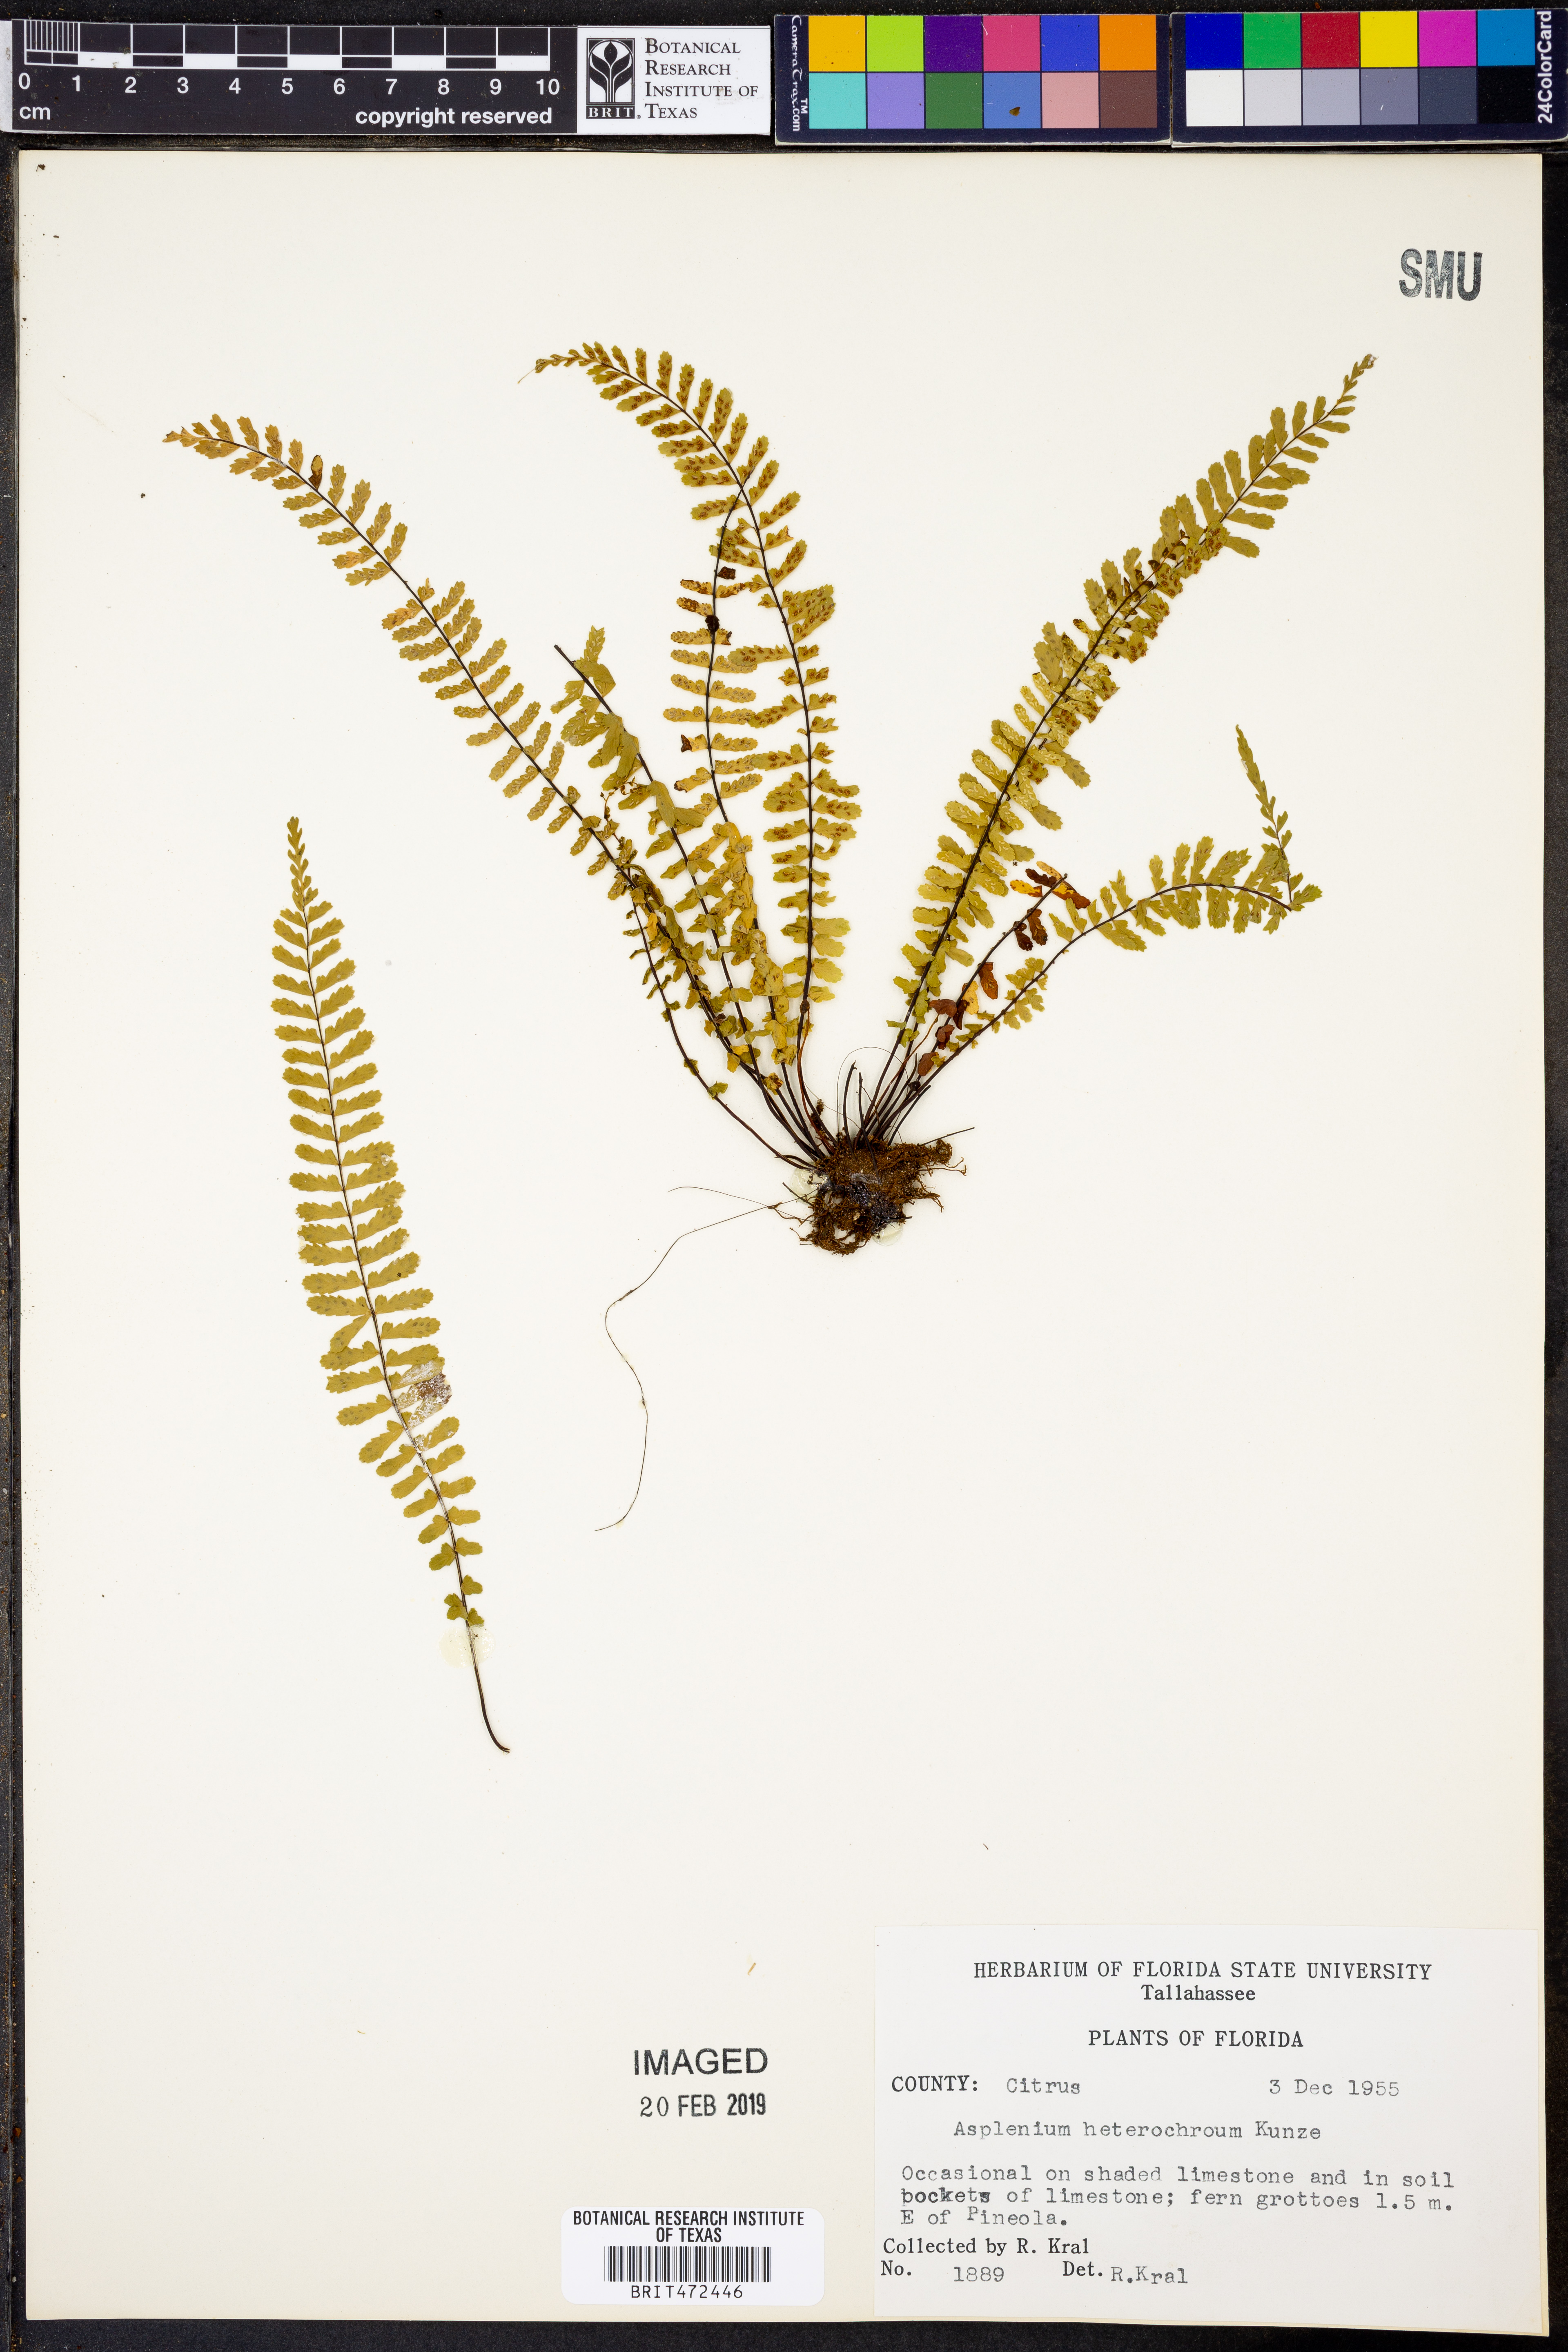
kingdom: Plantae
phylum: Tracheophyta
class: Polypodiopsida
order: Polypodiales
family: Aspleniaceae
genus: Asplenium
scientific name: Asplenium heterochroum
